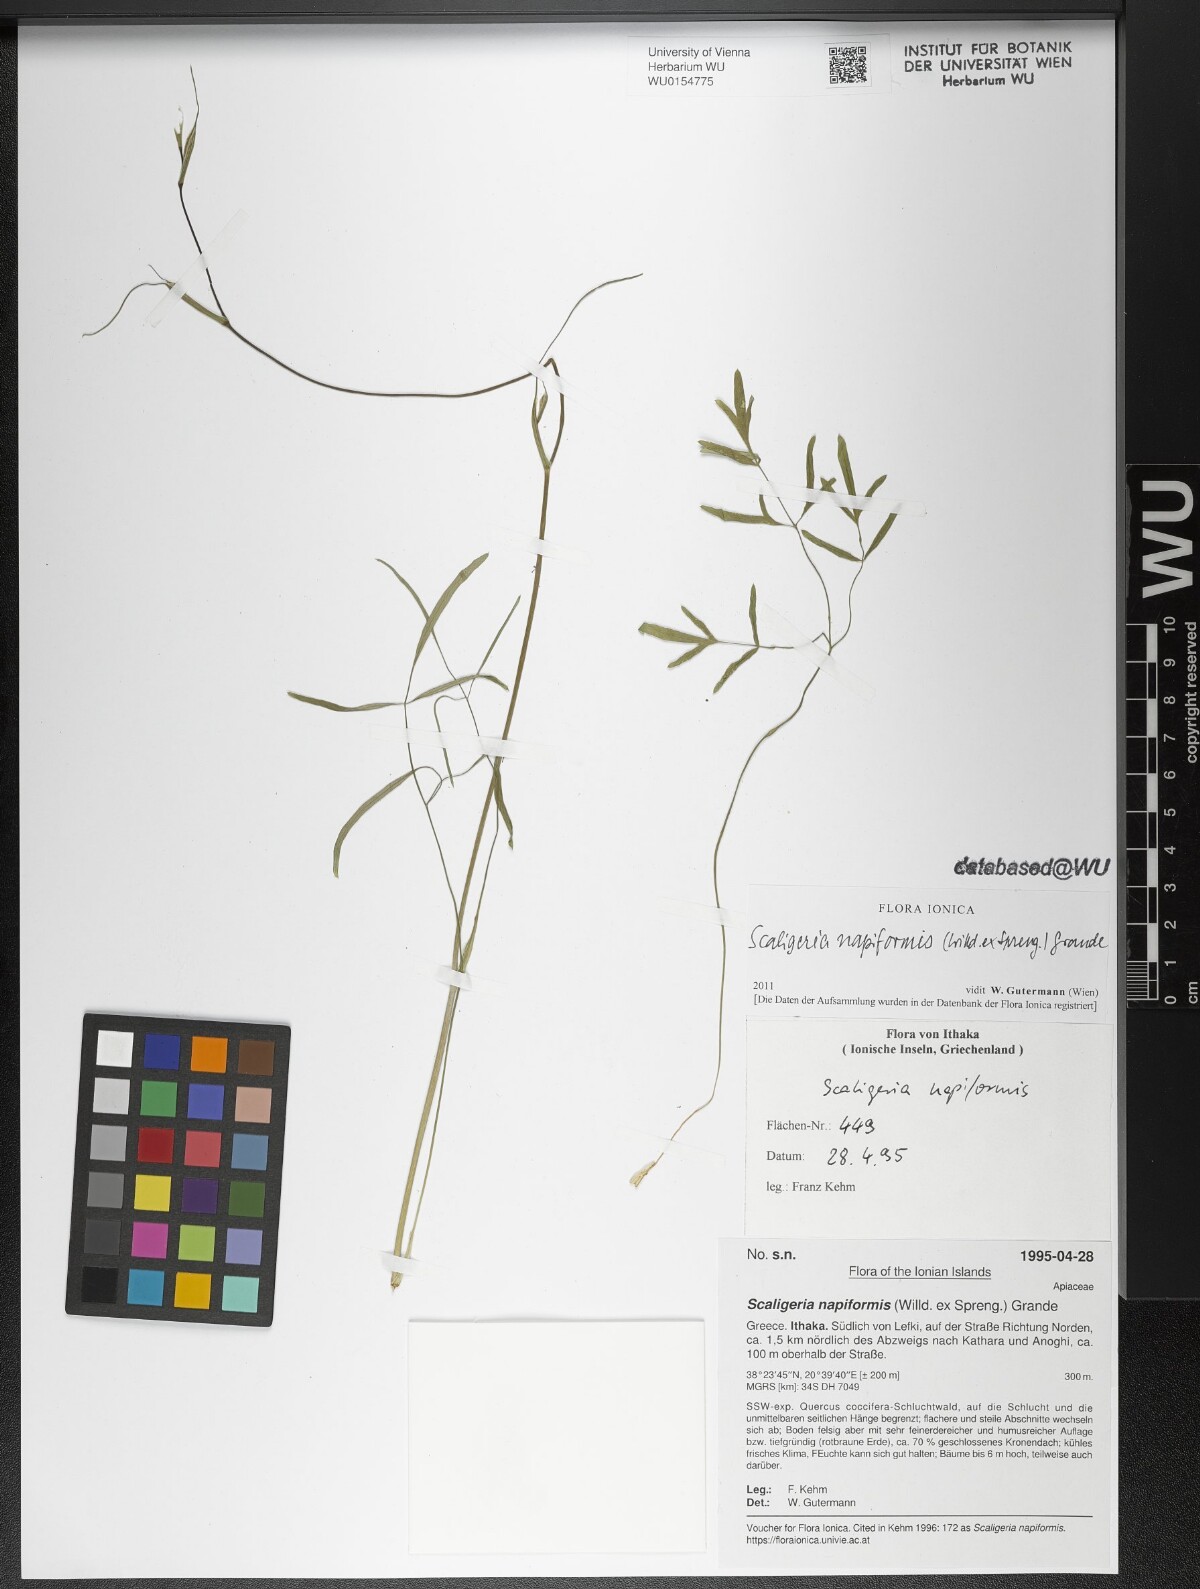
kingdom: Plantae
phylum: Tracheophyta
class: Magnoliopsida
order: Apiales
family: Apiaceae
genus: Scaligeria
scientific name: Scaligeria napiformis
